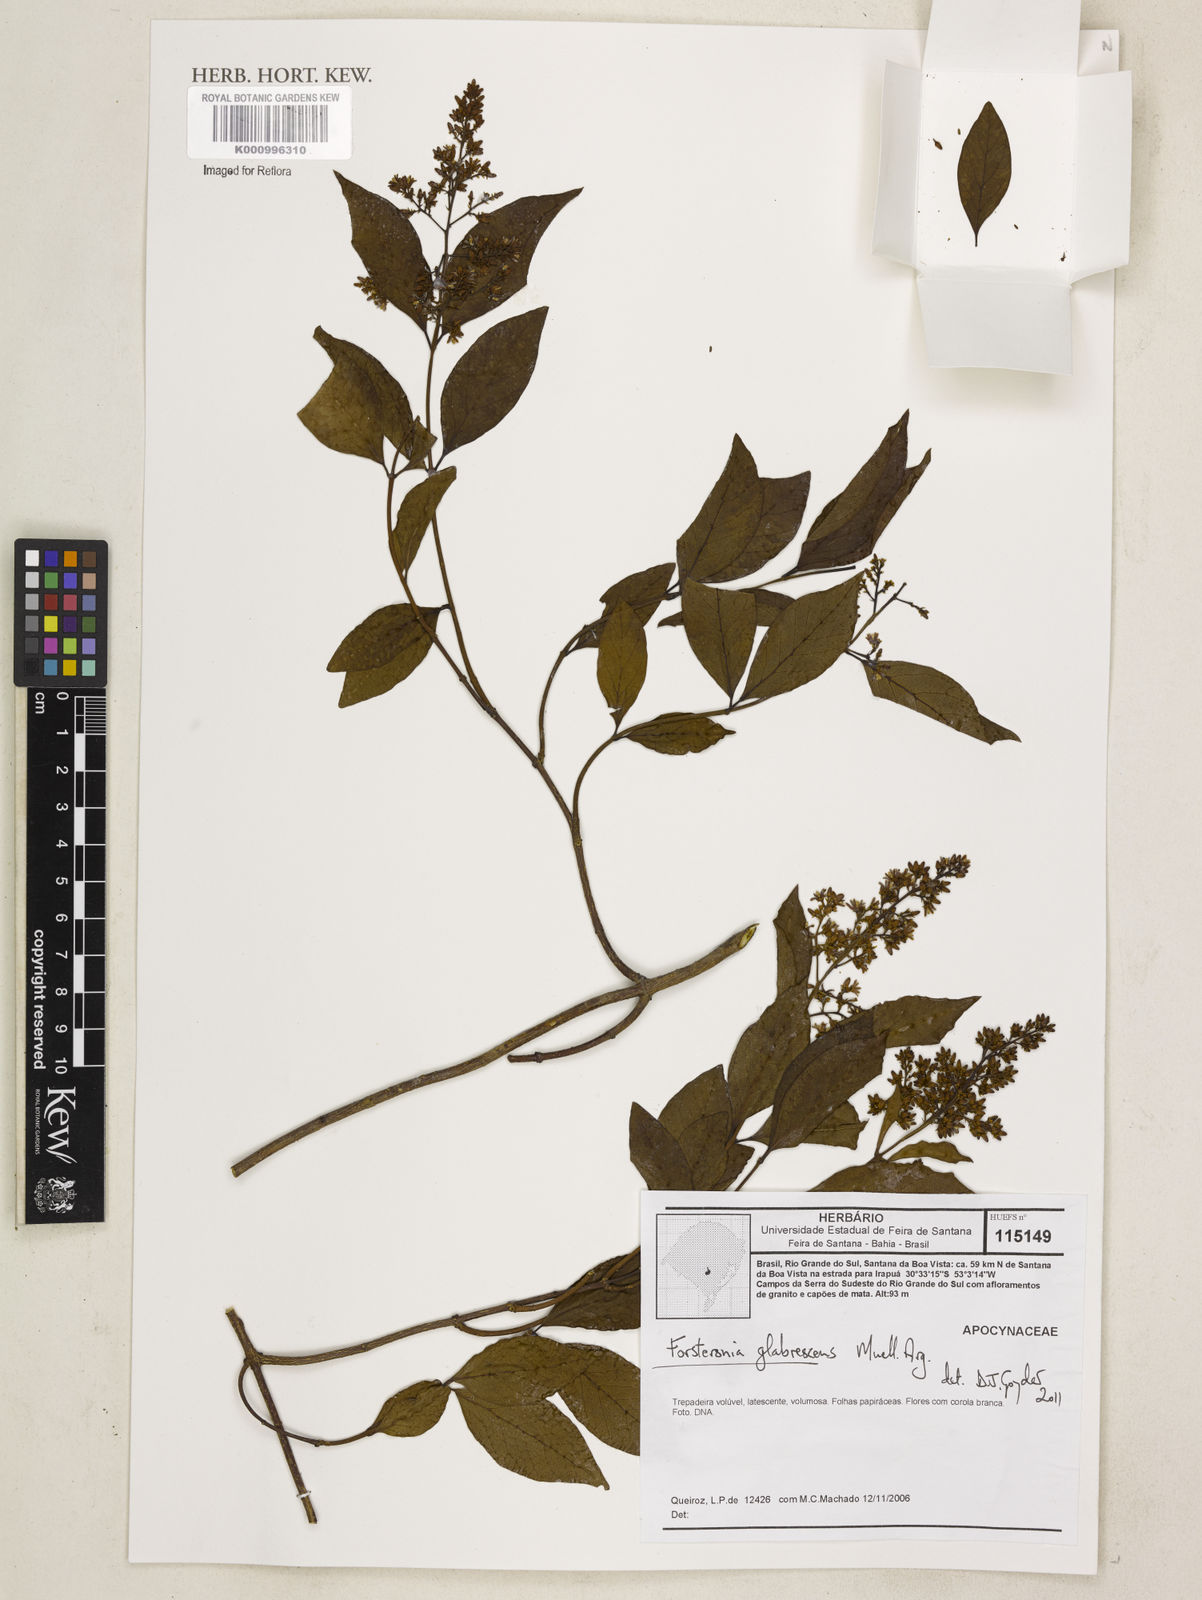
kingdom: Plantae
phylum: Tracheophyta
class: Magnoliopsida
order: Gentianales
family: Apocynaceae
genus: Forsteronia
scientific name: Forsteronia
